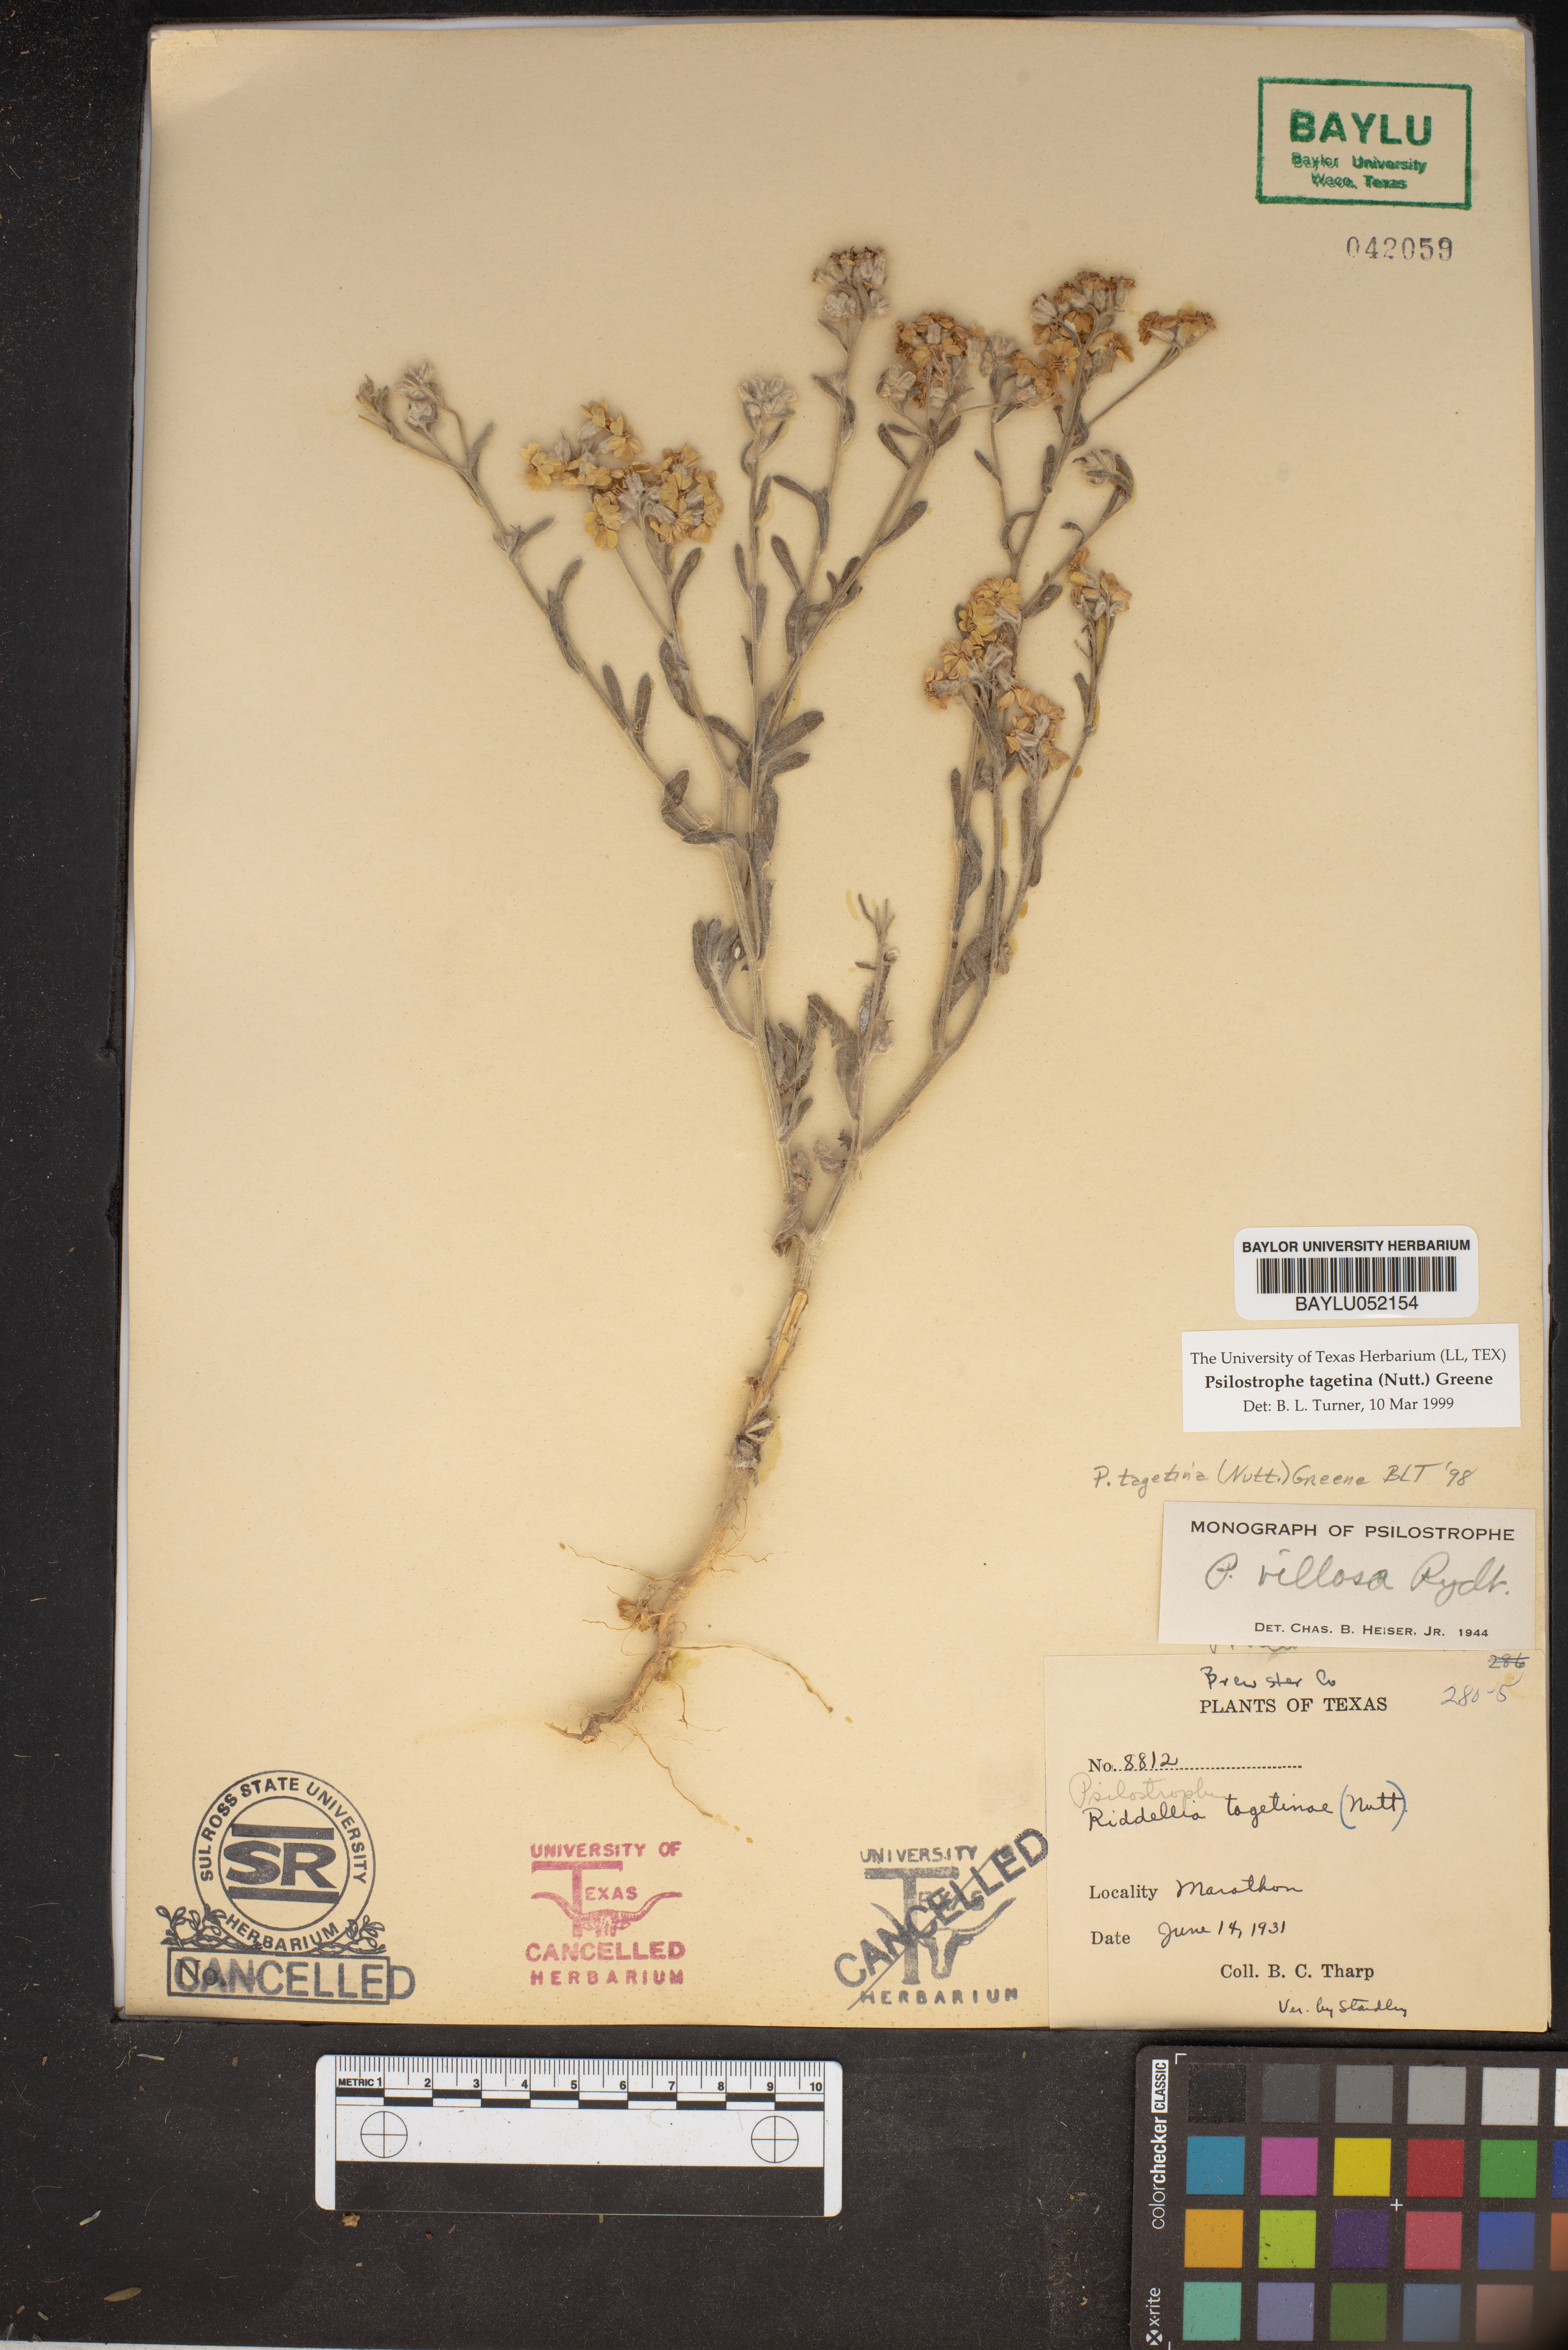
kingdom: Plantae
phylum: Tracheophyta
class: Magnoliopsida
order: Asterales
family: Asteraceae
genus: Psilostrophe
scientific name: Psilostrophe tagetina
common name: Marigold paper-flower
